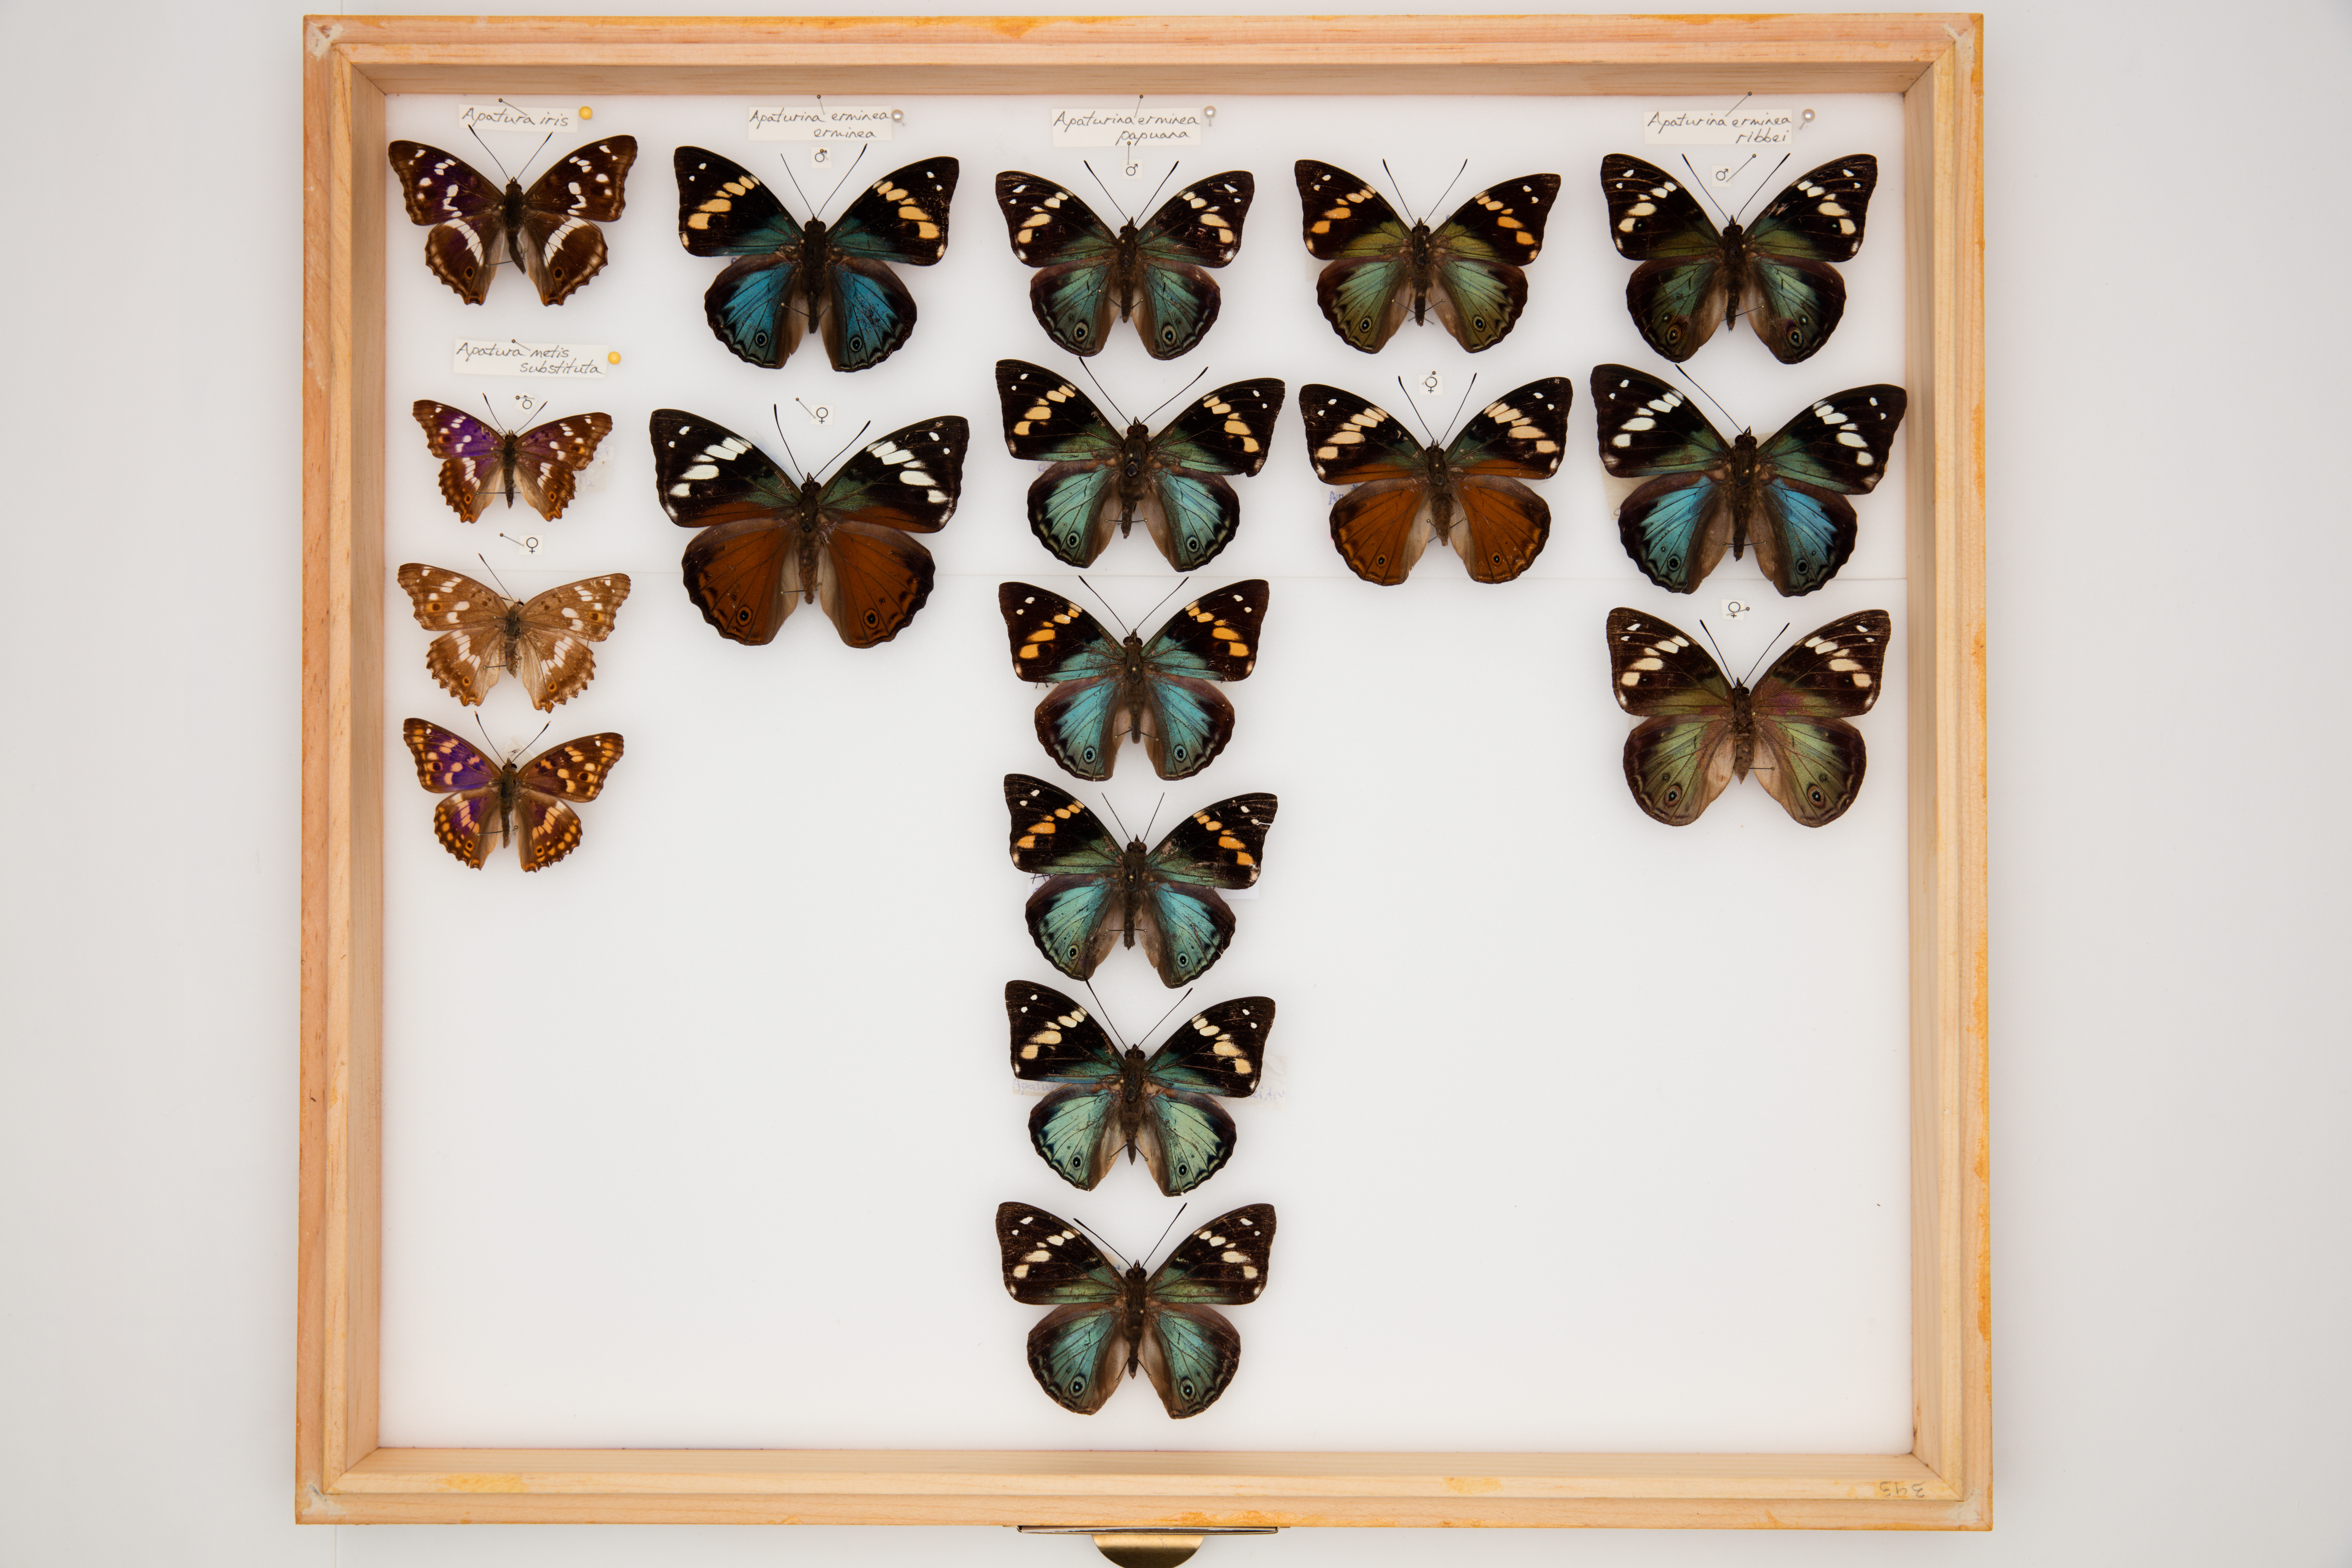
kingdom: Animalia
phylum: Arthropoda
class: Insecta
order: Lepidoptera
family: Nymphalidae
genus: Apatura
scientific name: Apatura ilia
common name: Lesser purple emperor
